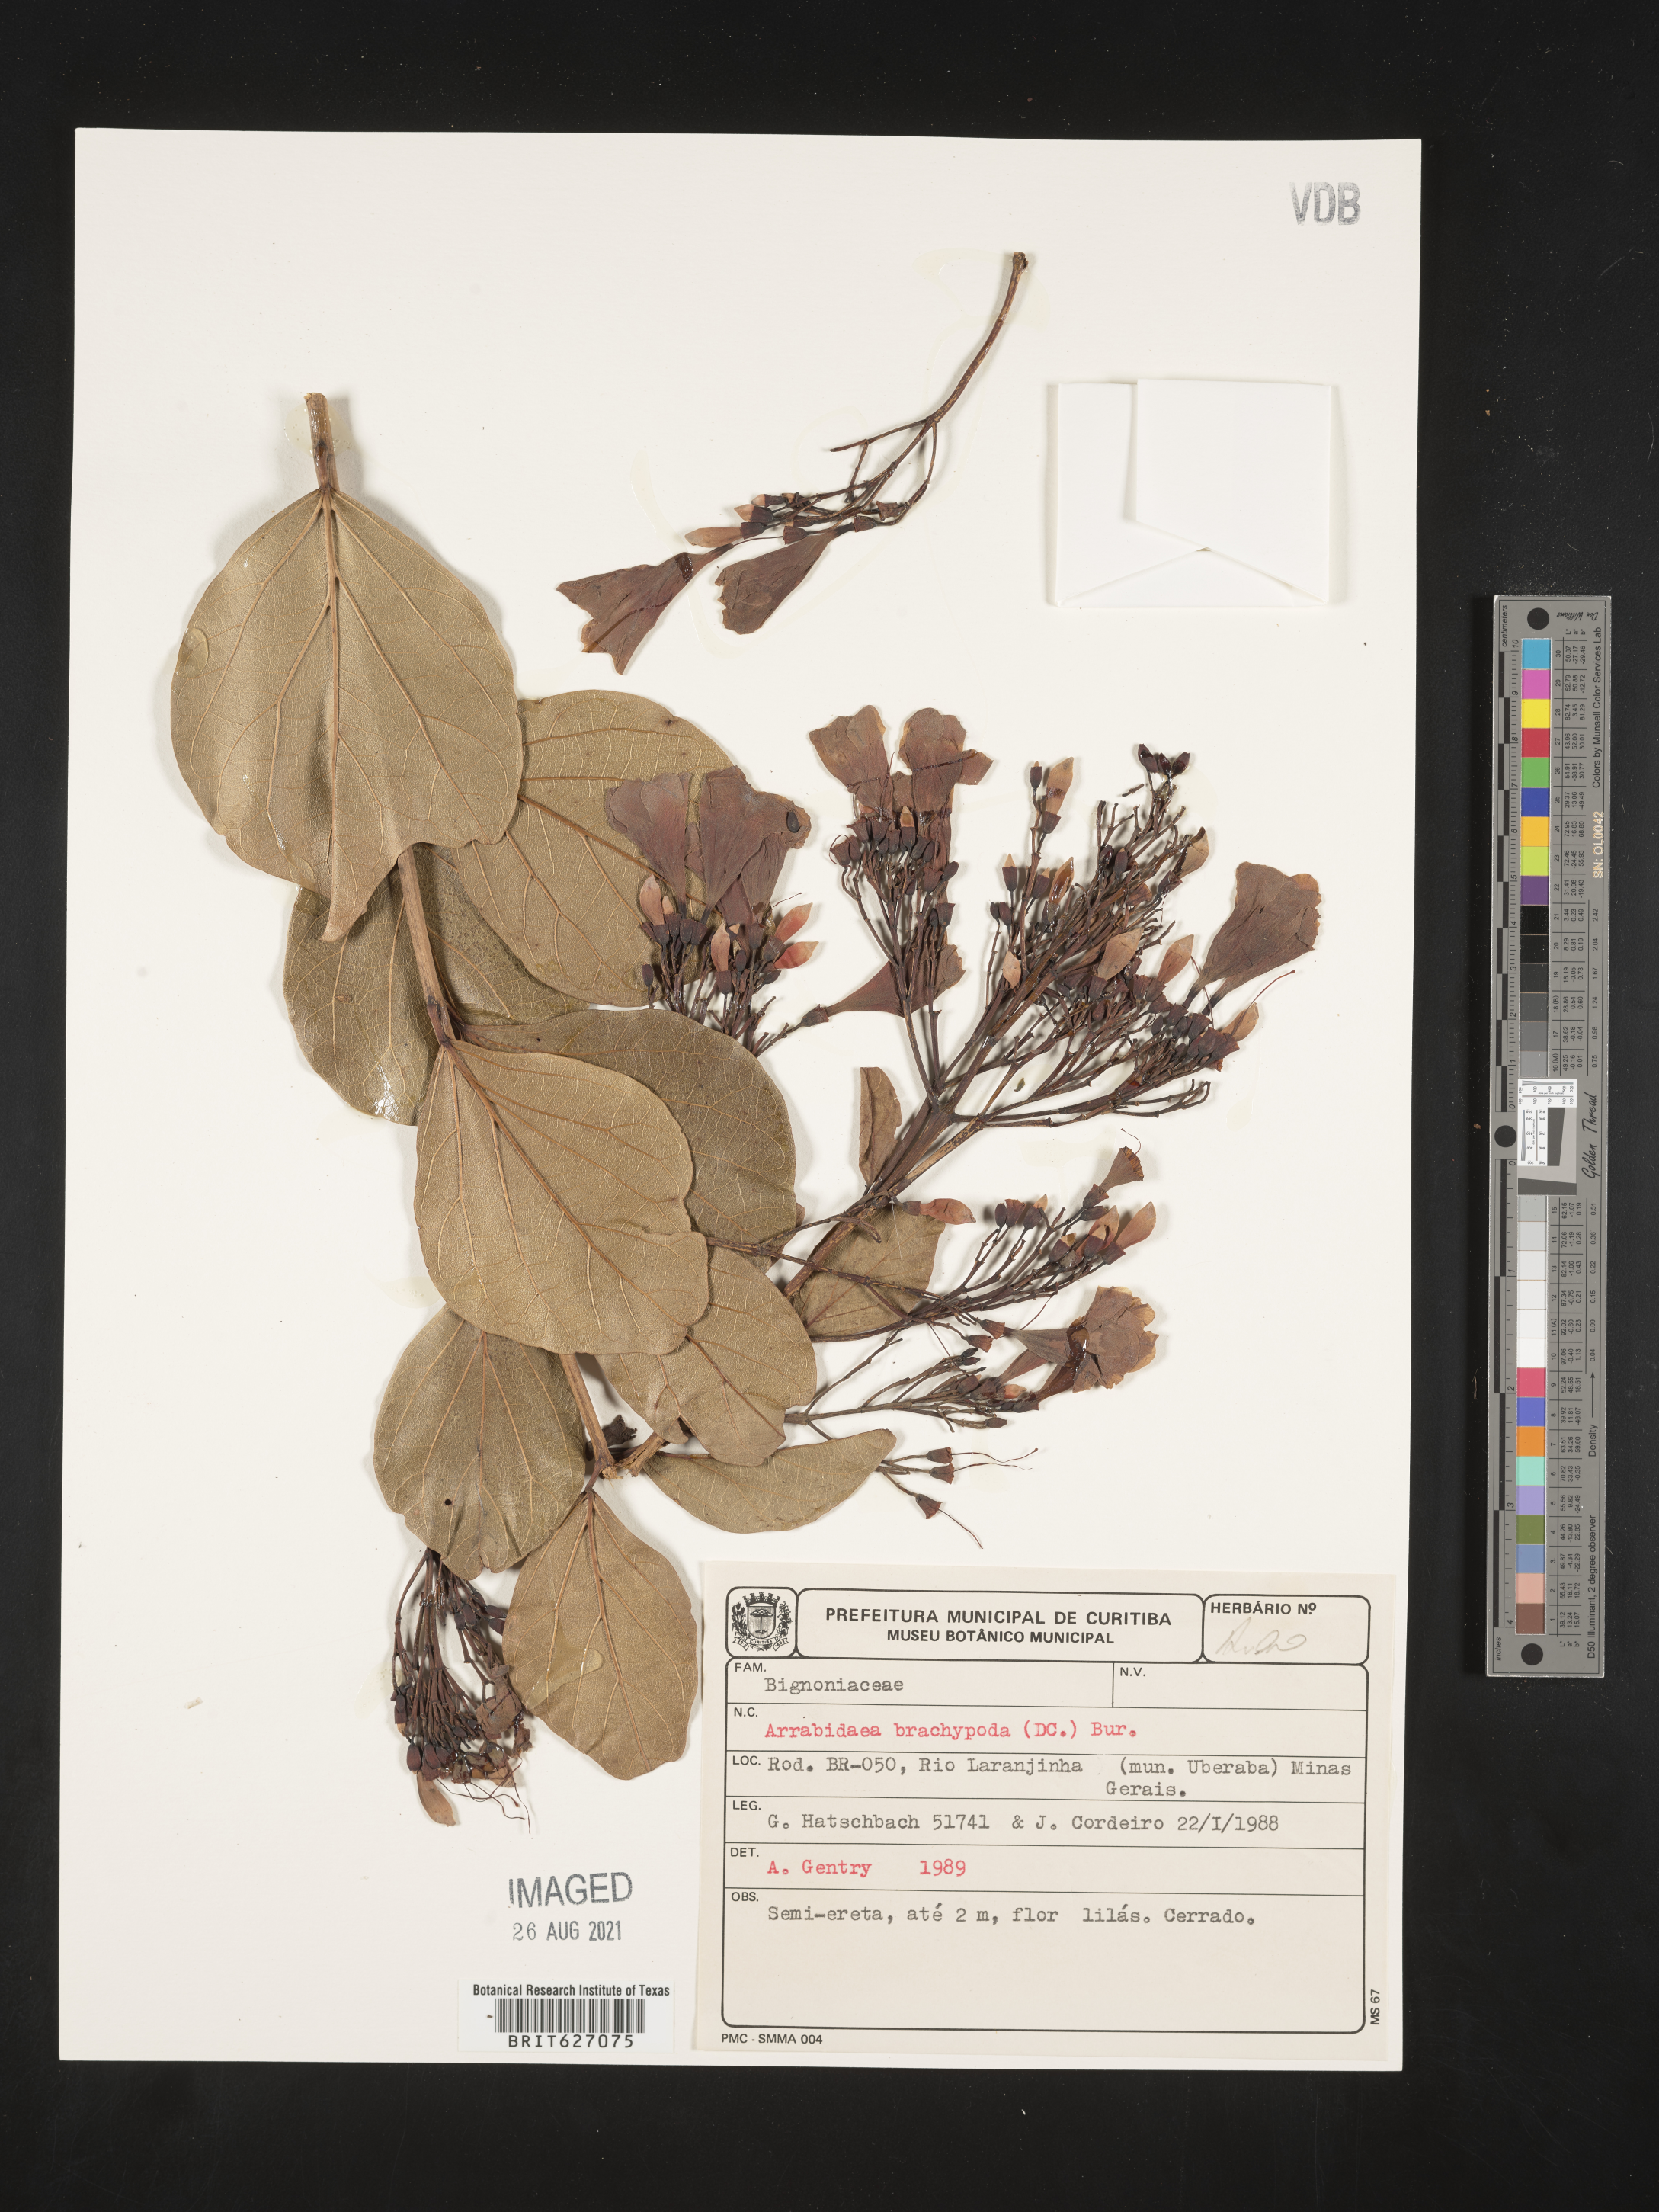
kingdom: Plantae
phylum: Tracheophyta
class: Magnoliopsida
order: Lamiales
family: Bignoniaceae
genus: Fridericia
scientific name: Fridericia platyphylla
